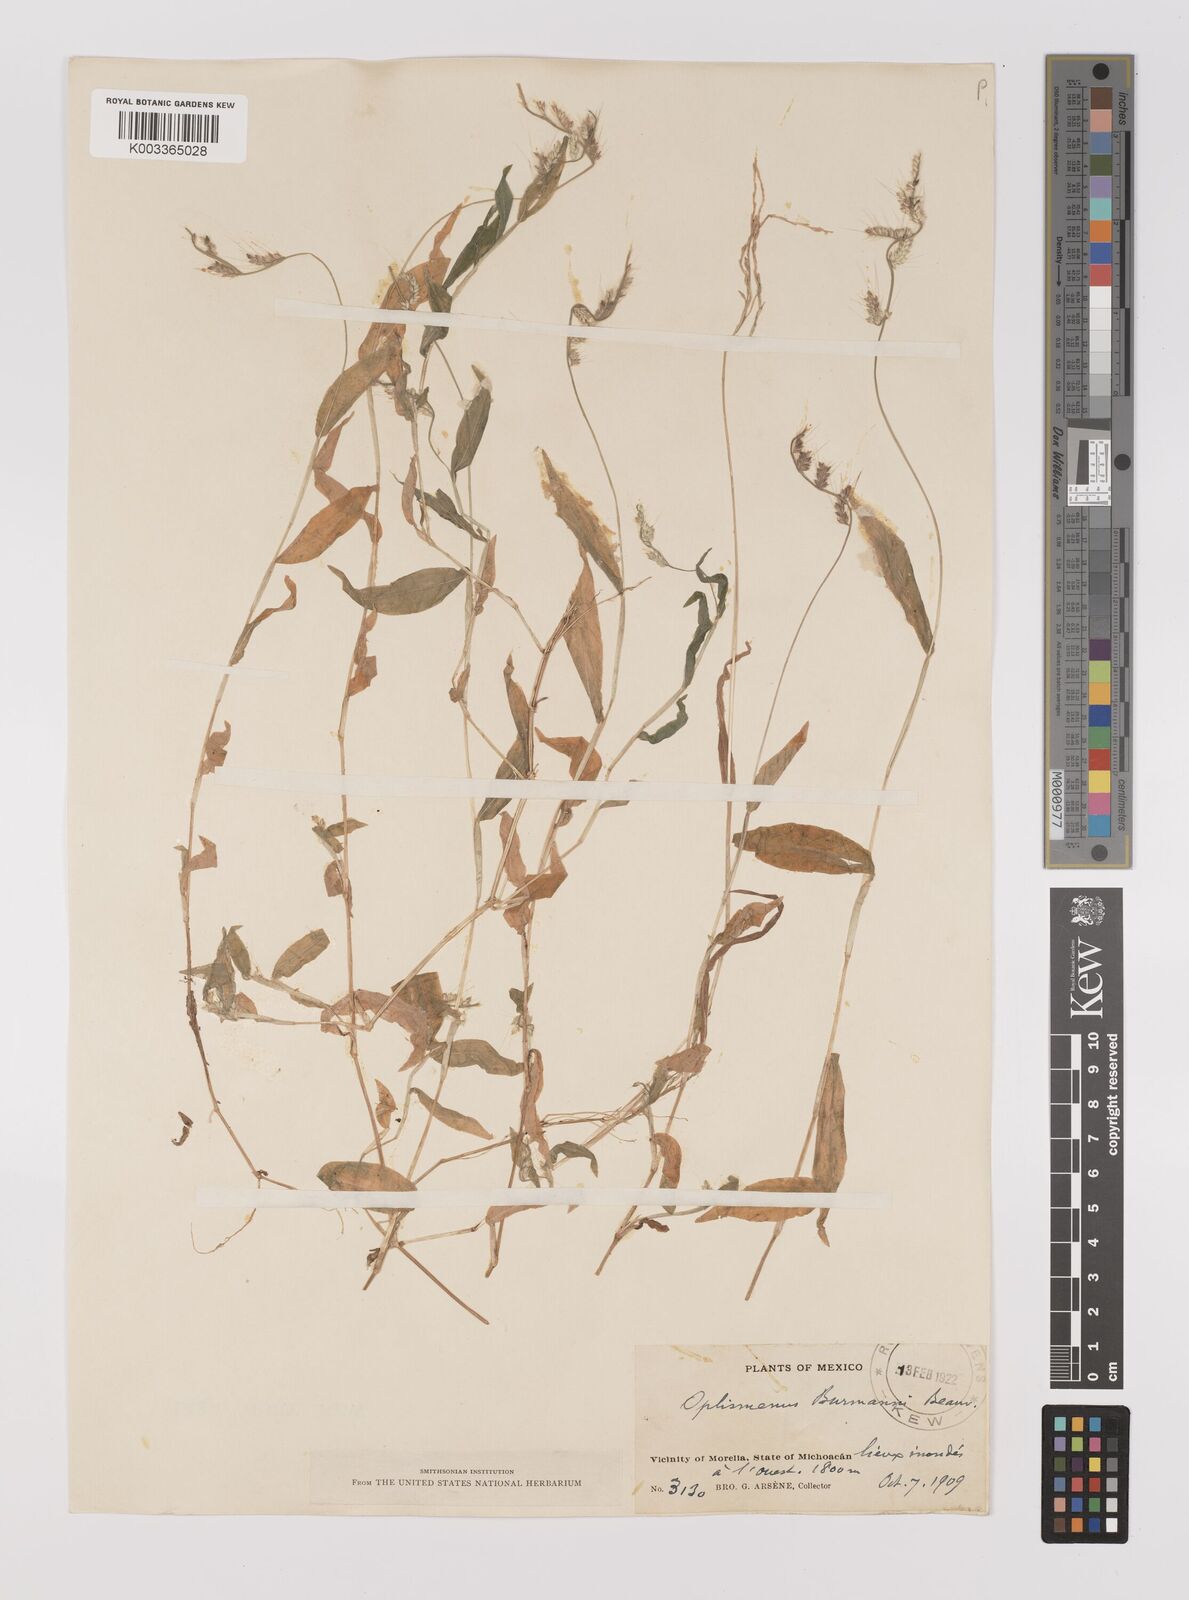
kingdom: Plantae
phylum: Tracheophyta
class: Liliopsida
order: Poales
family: Poaceae
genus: Oplismenus
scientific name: Oplismenus burmanni
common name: Burmann's basketgrass
